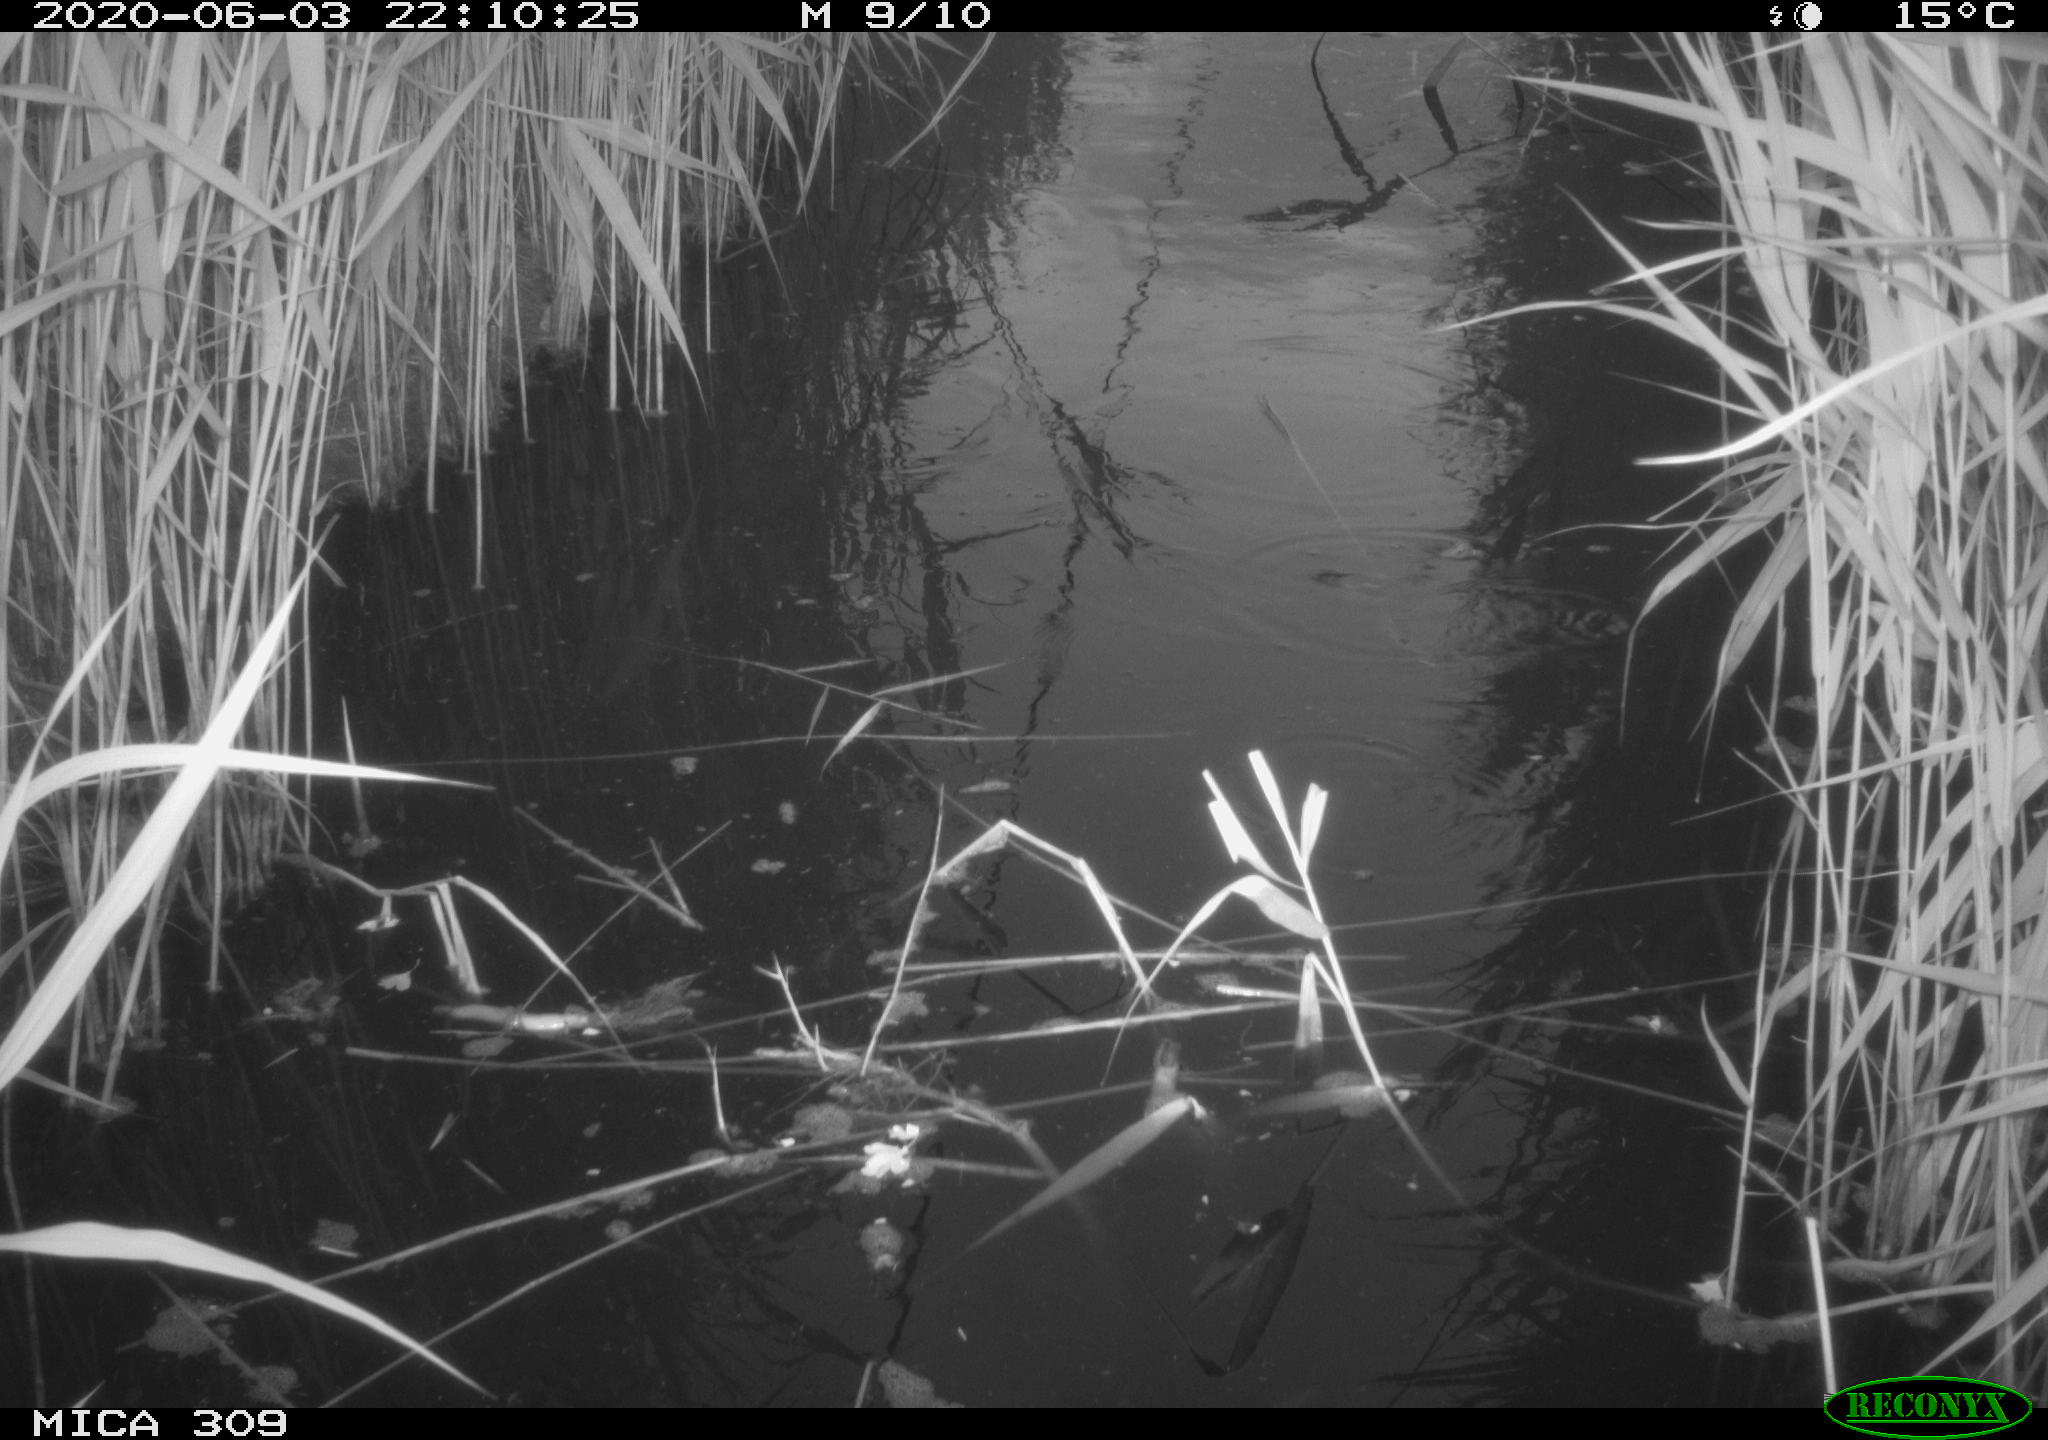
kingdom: Animalia
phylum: Chordata
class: Aves
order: Anseriformes
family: Anatidae
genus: Anas
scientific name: Anas platyrhynchos
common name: Mallard
